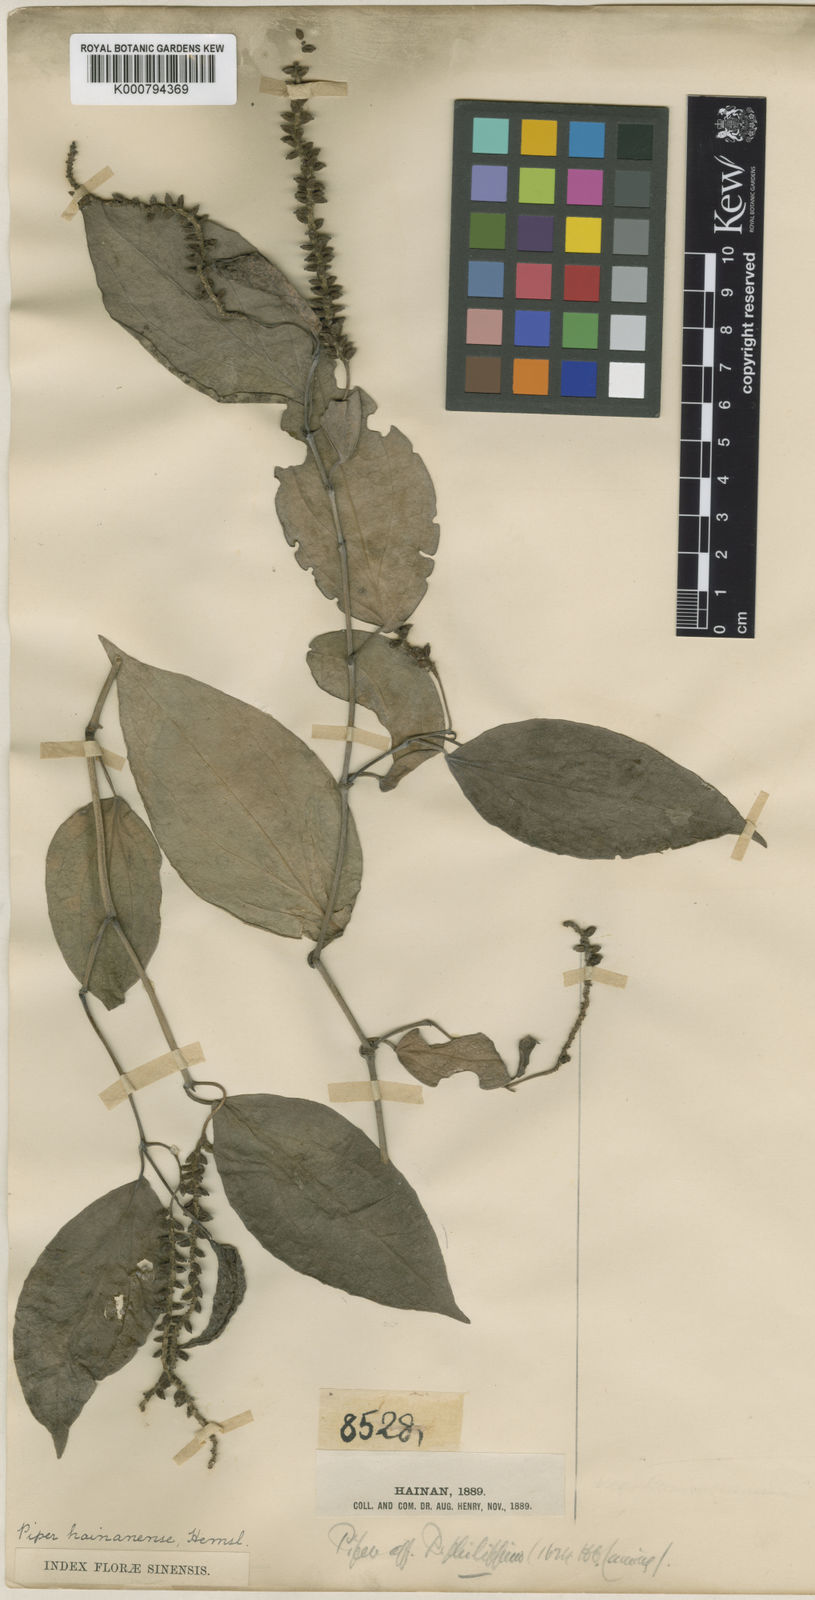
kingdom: Plantae
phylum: Tracheophyta
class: Magnoliopsida
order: Piperales
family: Piperaceae
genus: Piper
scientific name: Piper hainanense
